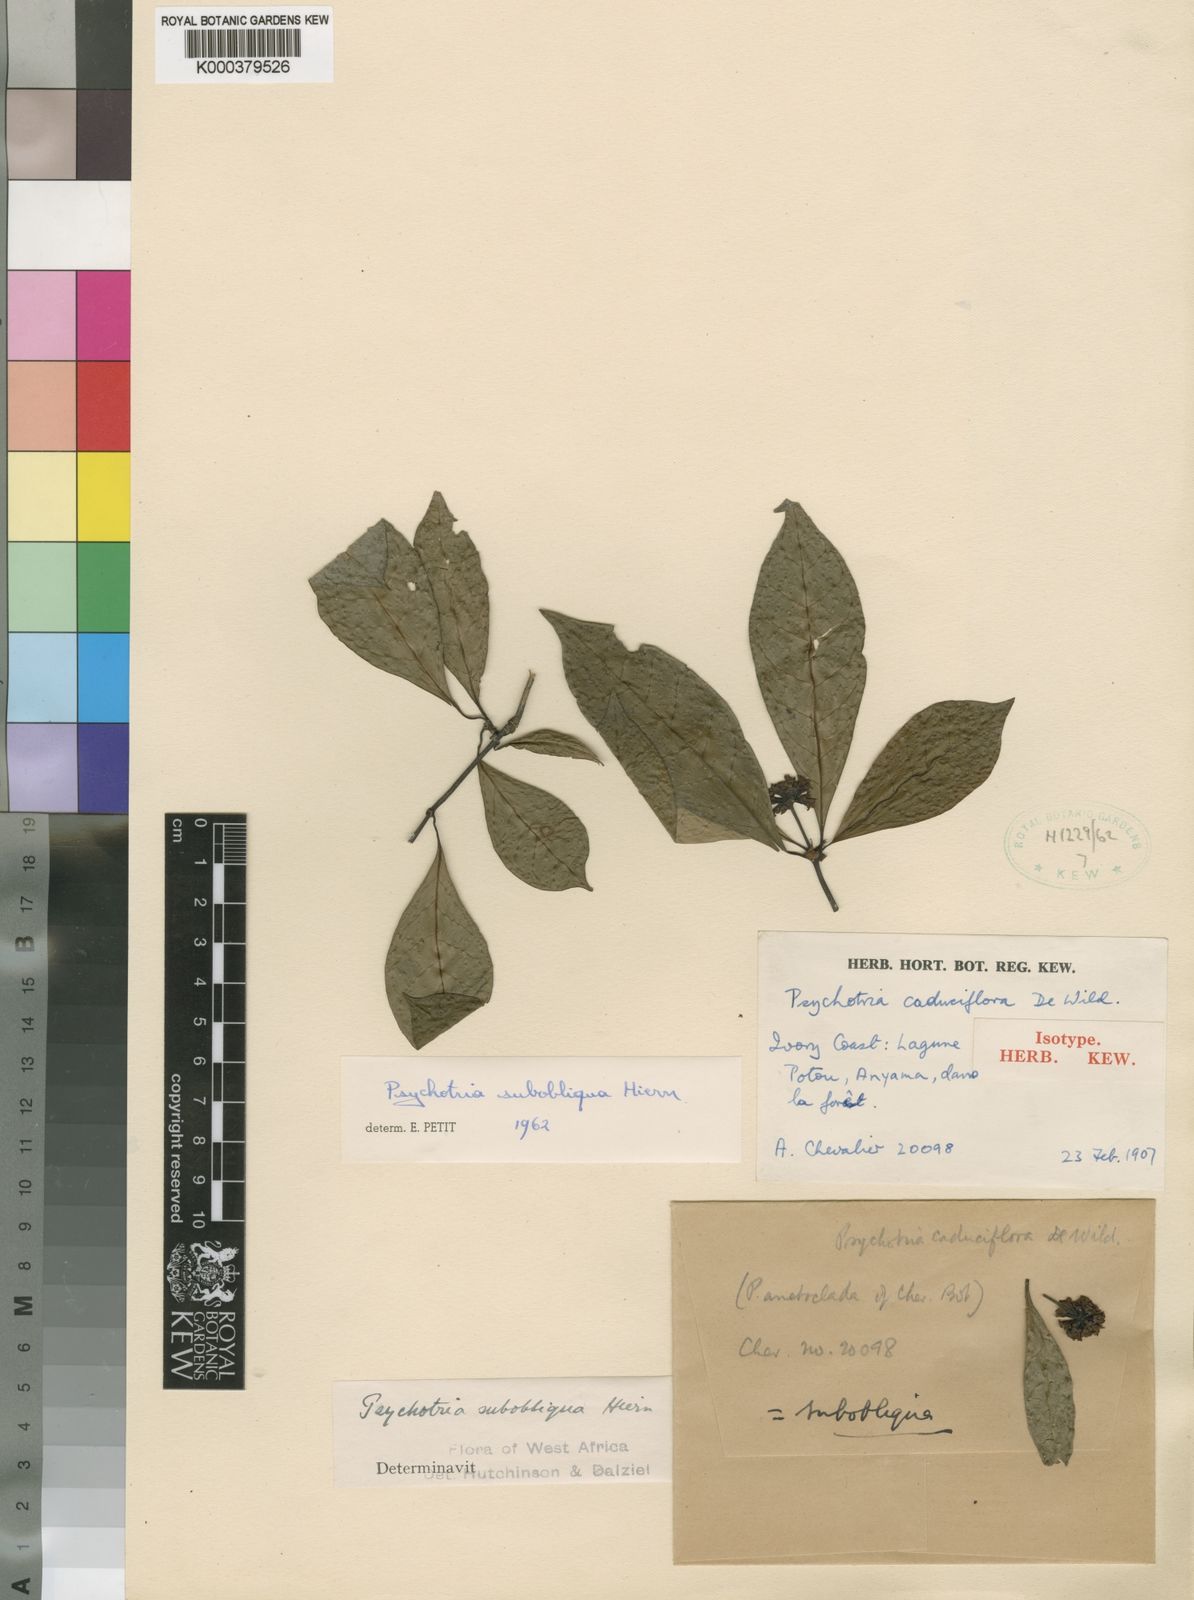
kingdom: Plantae
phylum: Tracheophyta
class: Magnoliopsida
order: Gentianales
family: Rubiaceae
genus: Psychotria
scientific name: Psychotria subobliqua
